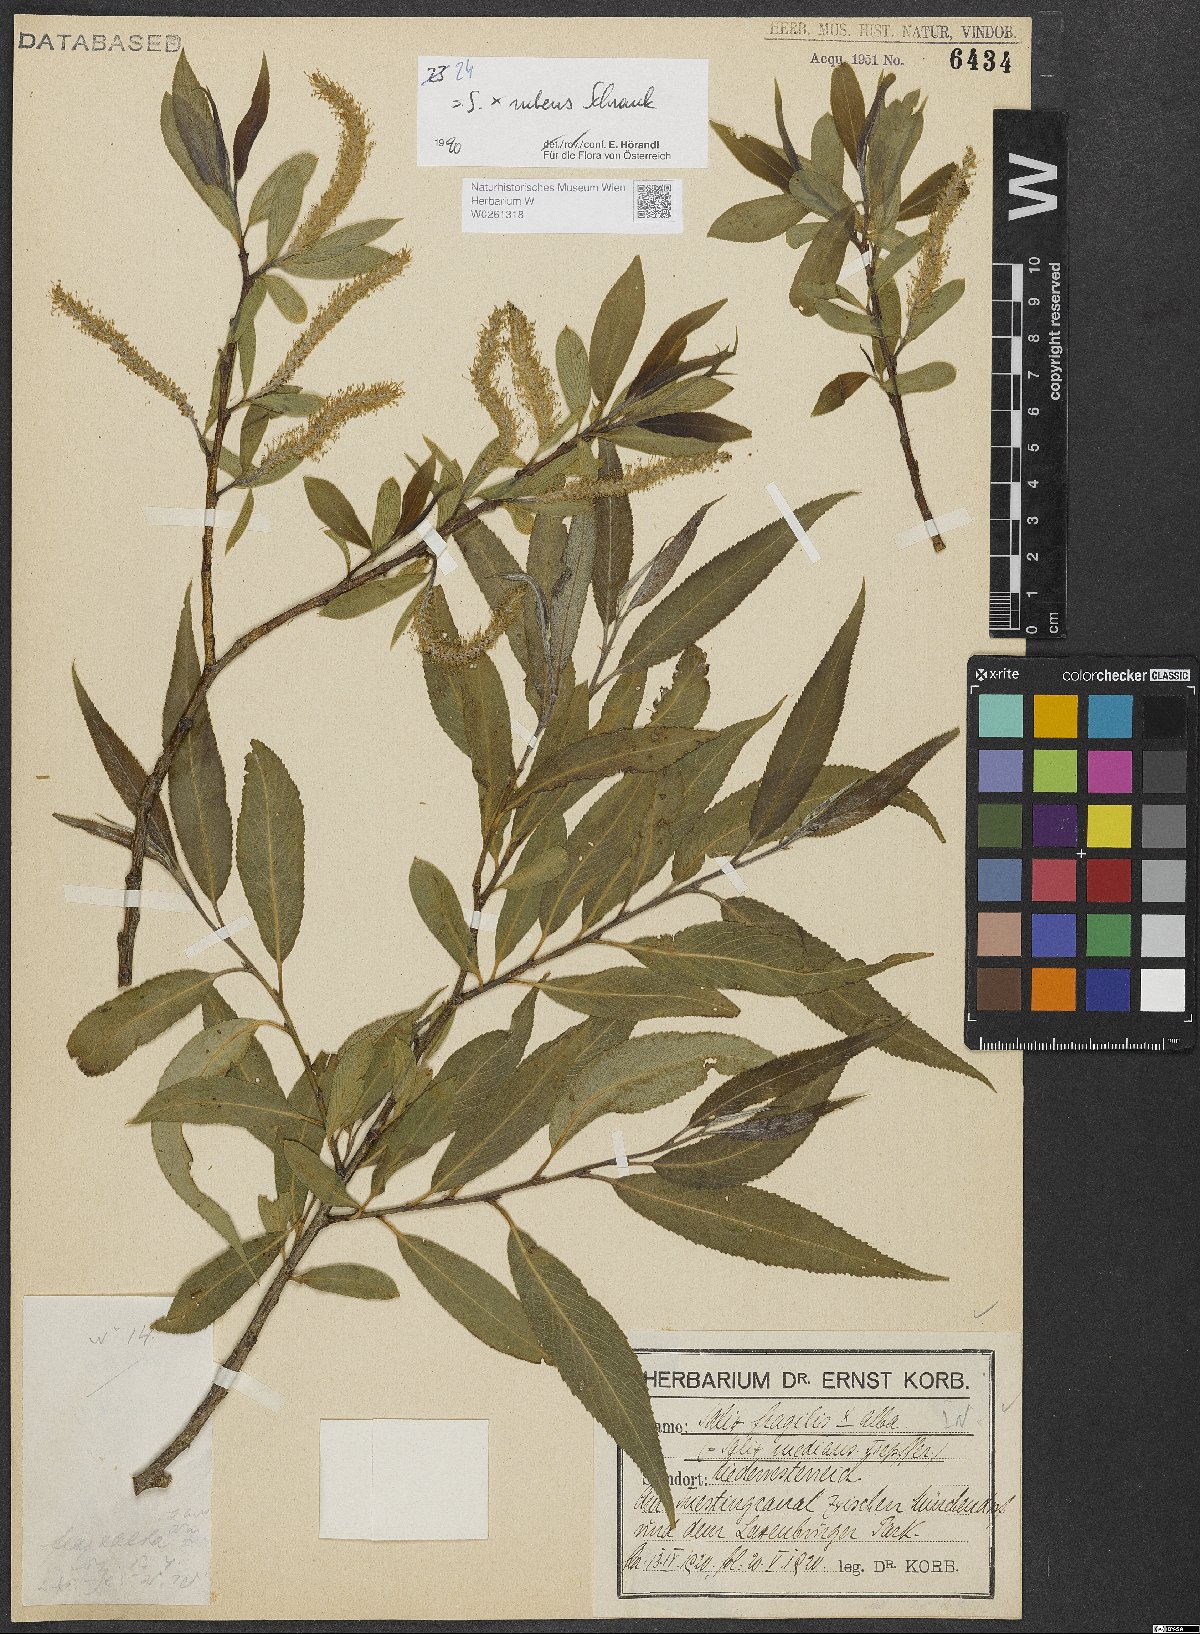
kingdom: Plantae
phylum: Tracheophyta
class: Magnoliopsida
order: Malpighiales
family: Salicaceae
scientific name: Salicaceae
